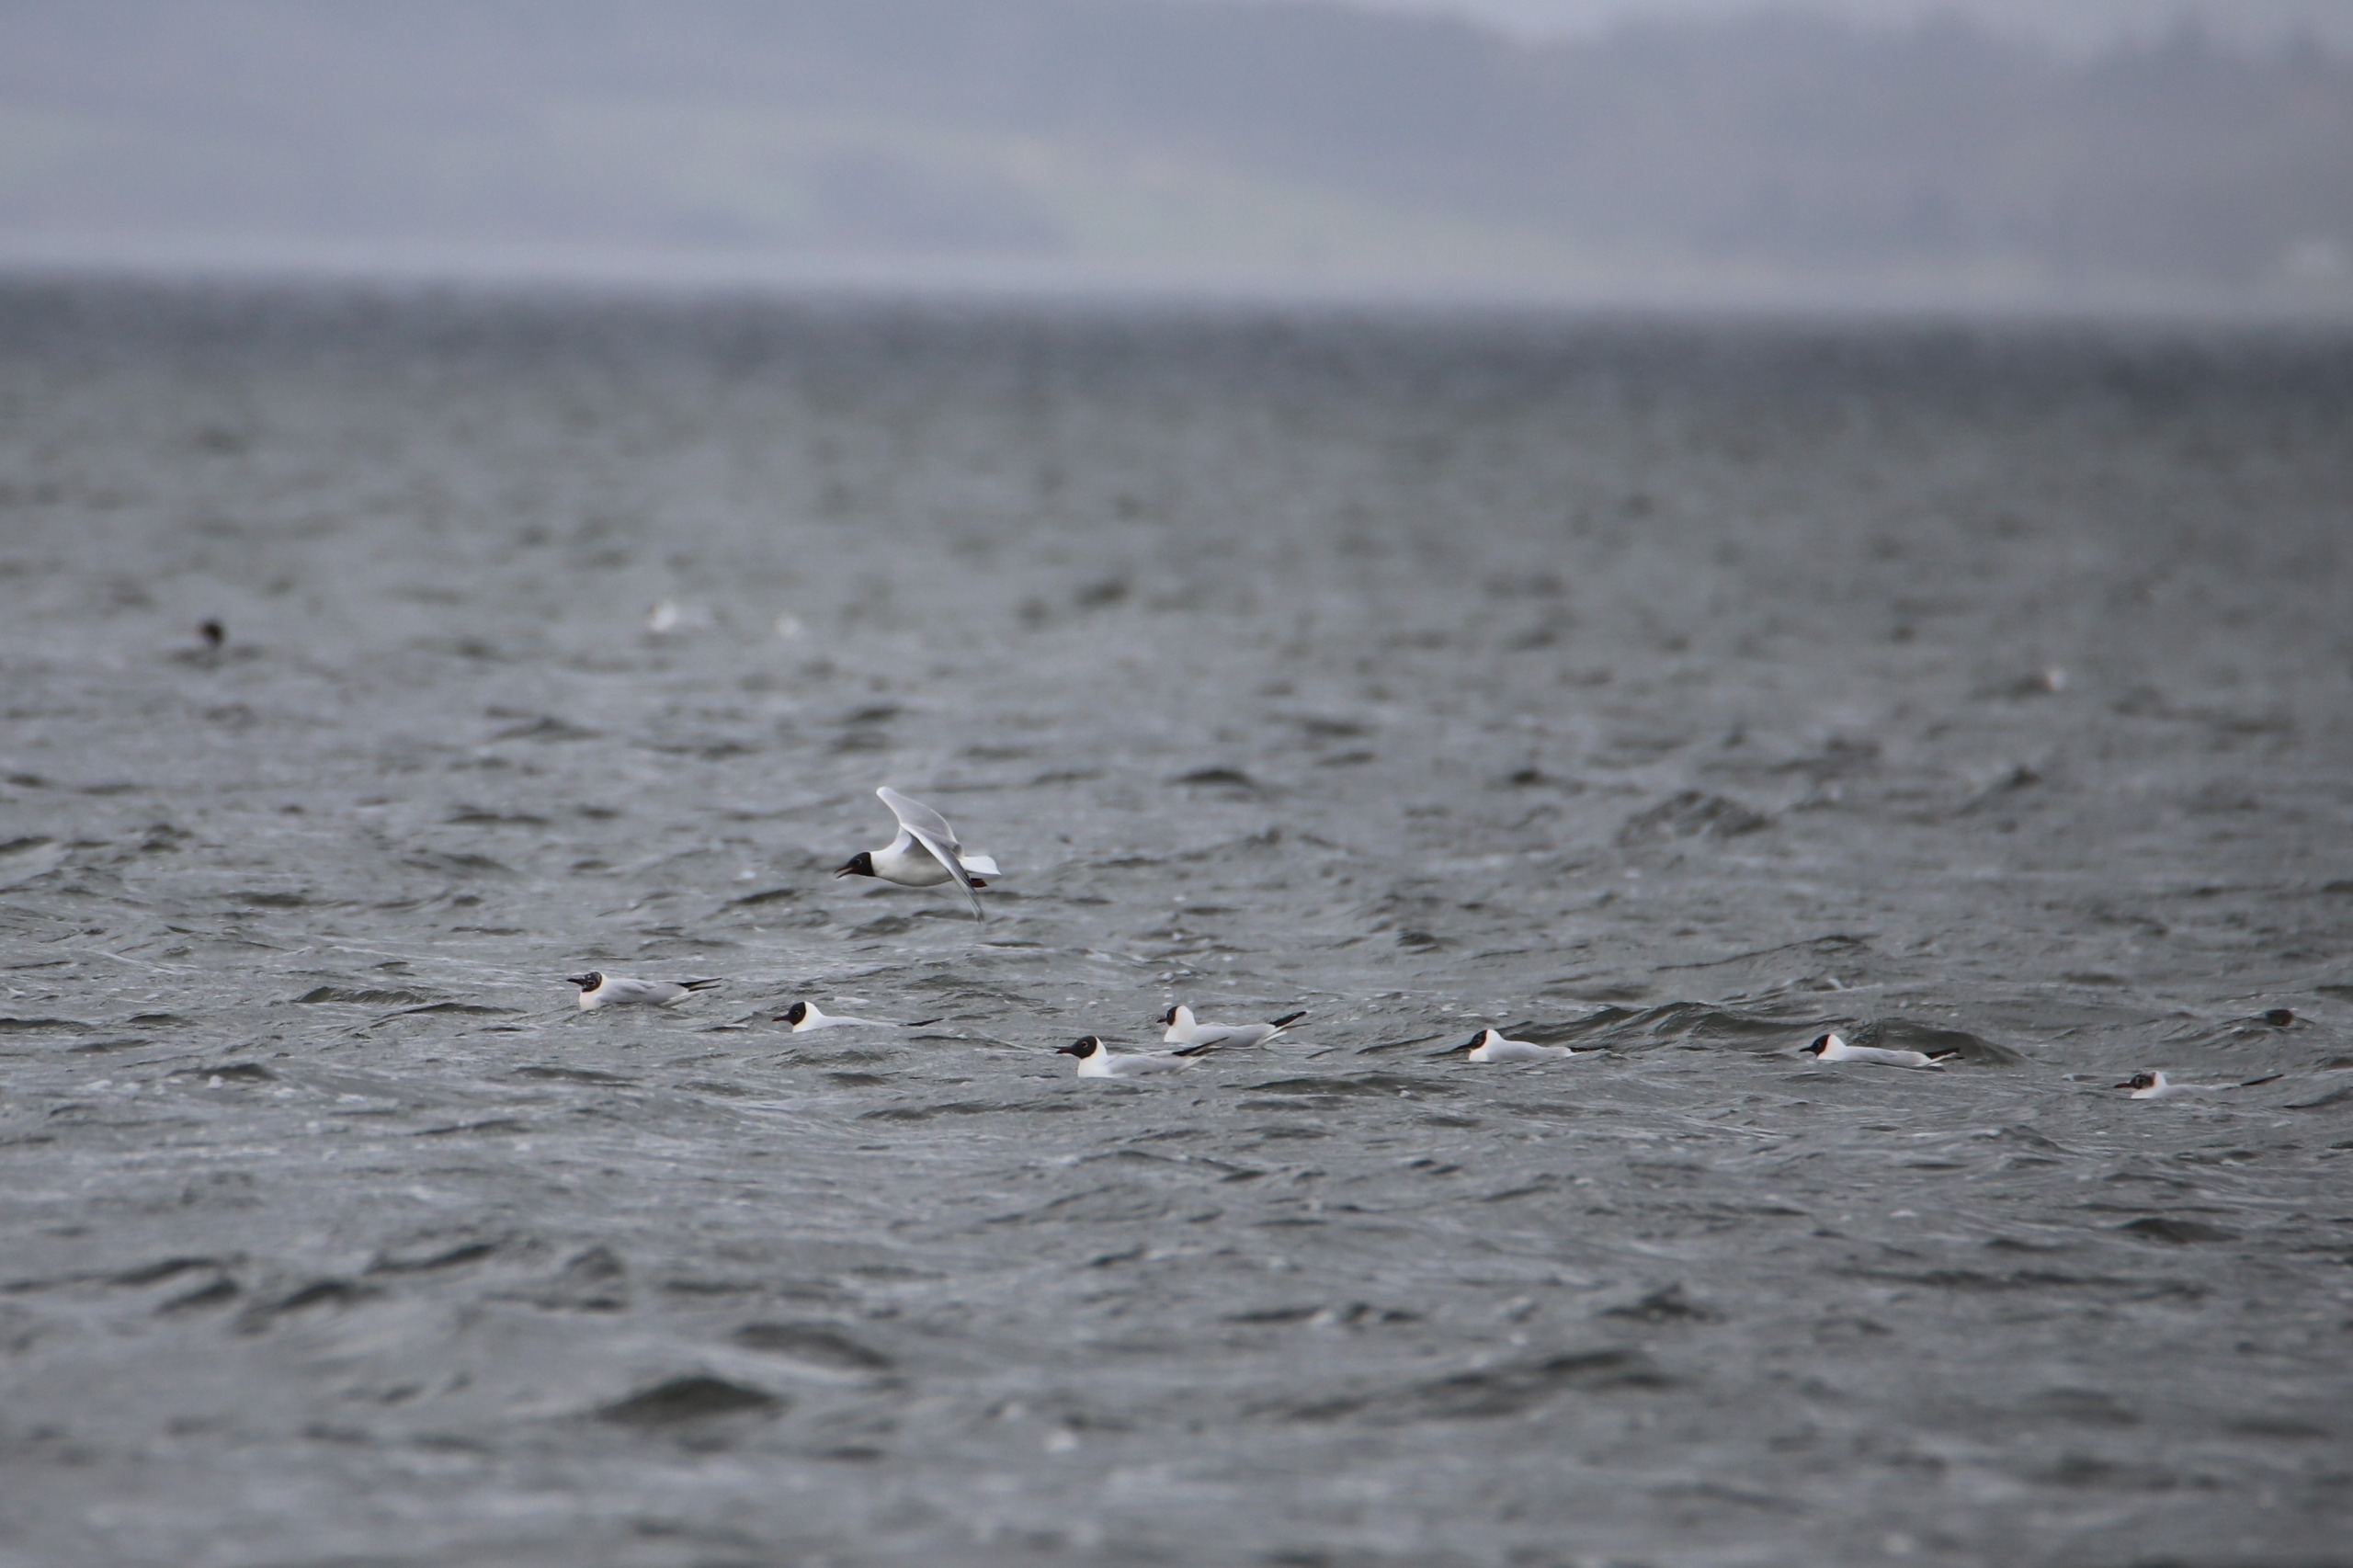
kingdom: Animalia
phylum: Chordata
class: Aves
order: Charadriiformes
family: Laridae
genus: Chroicocephalus
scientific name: Chroicocephalus ridibundus
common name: Hættemåge
